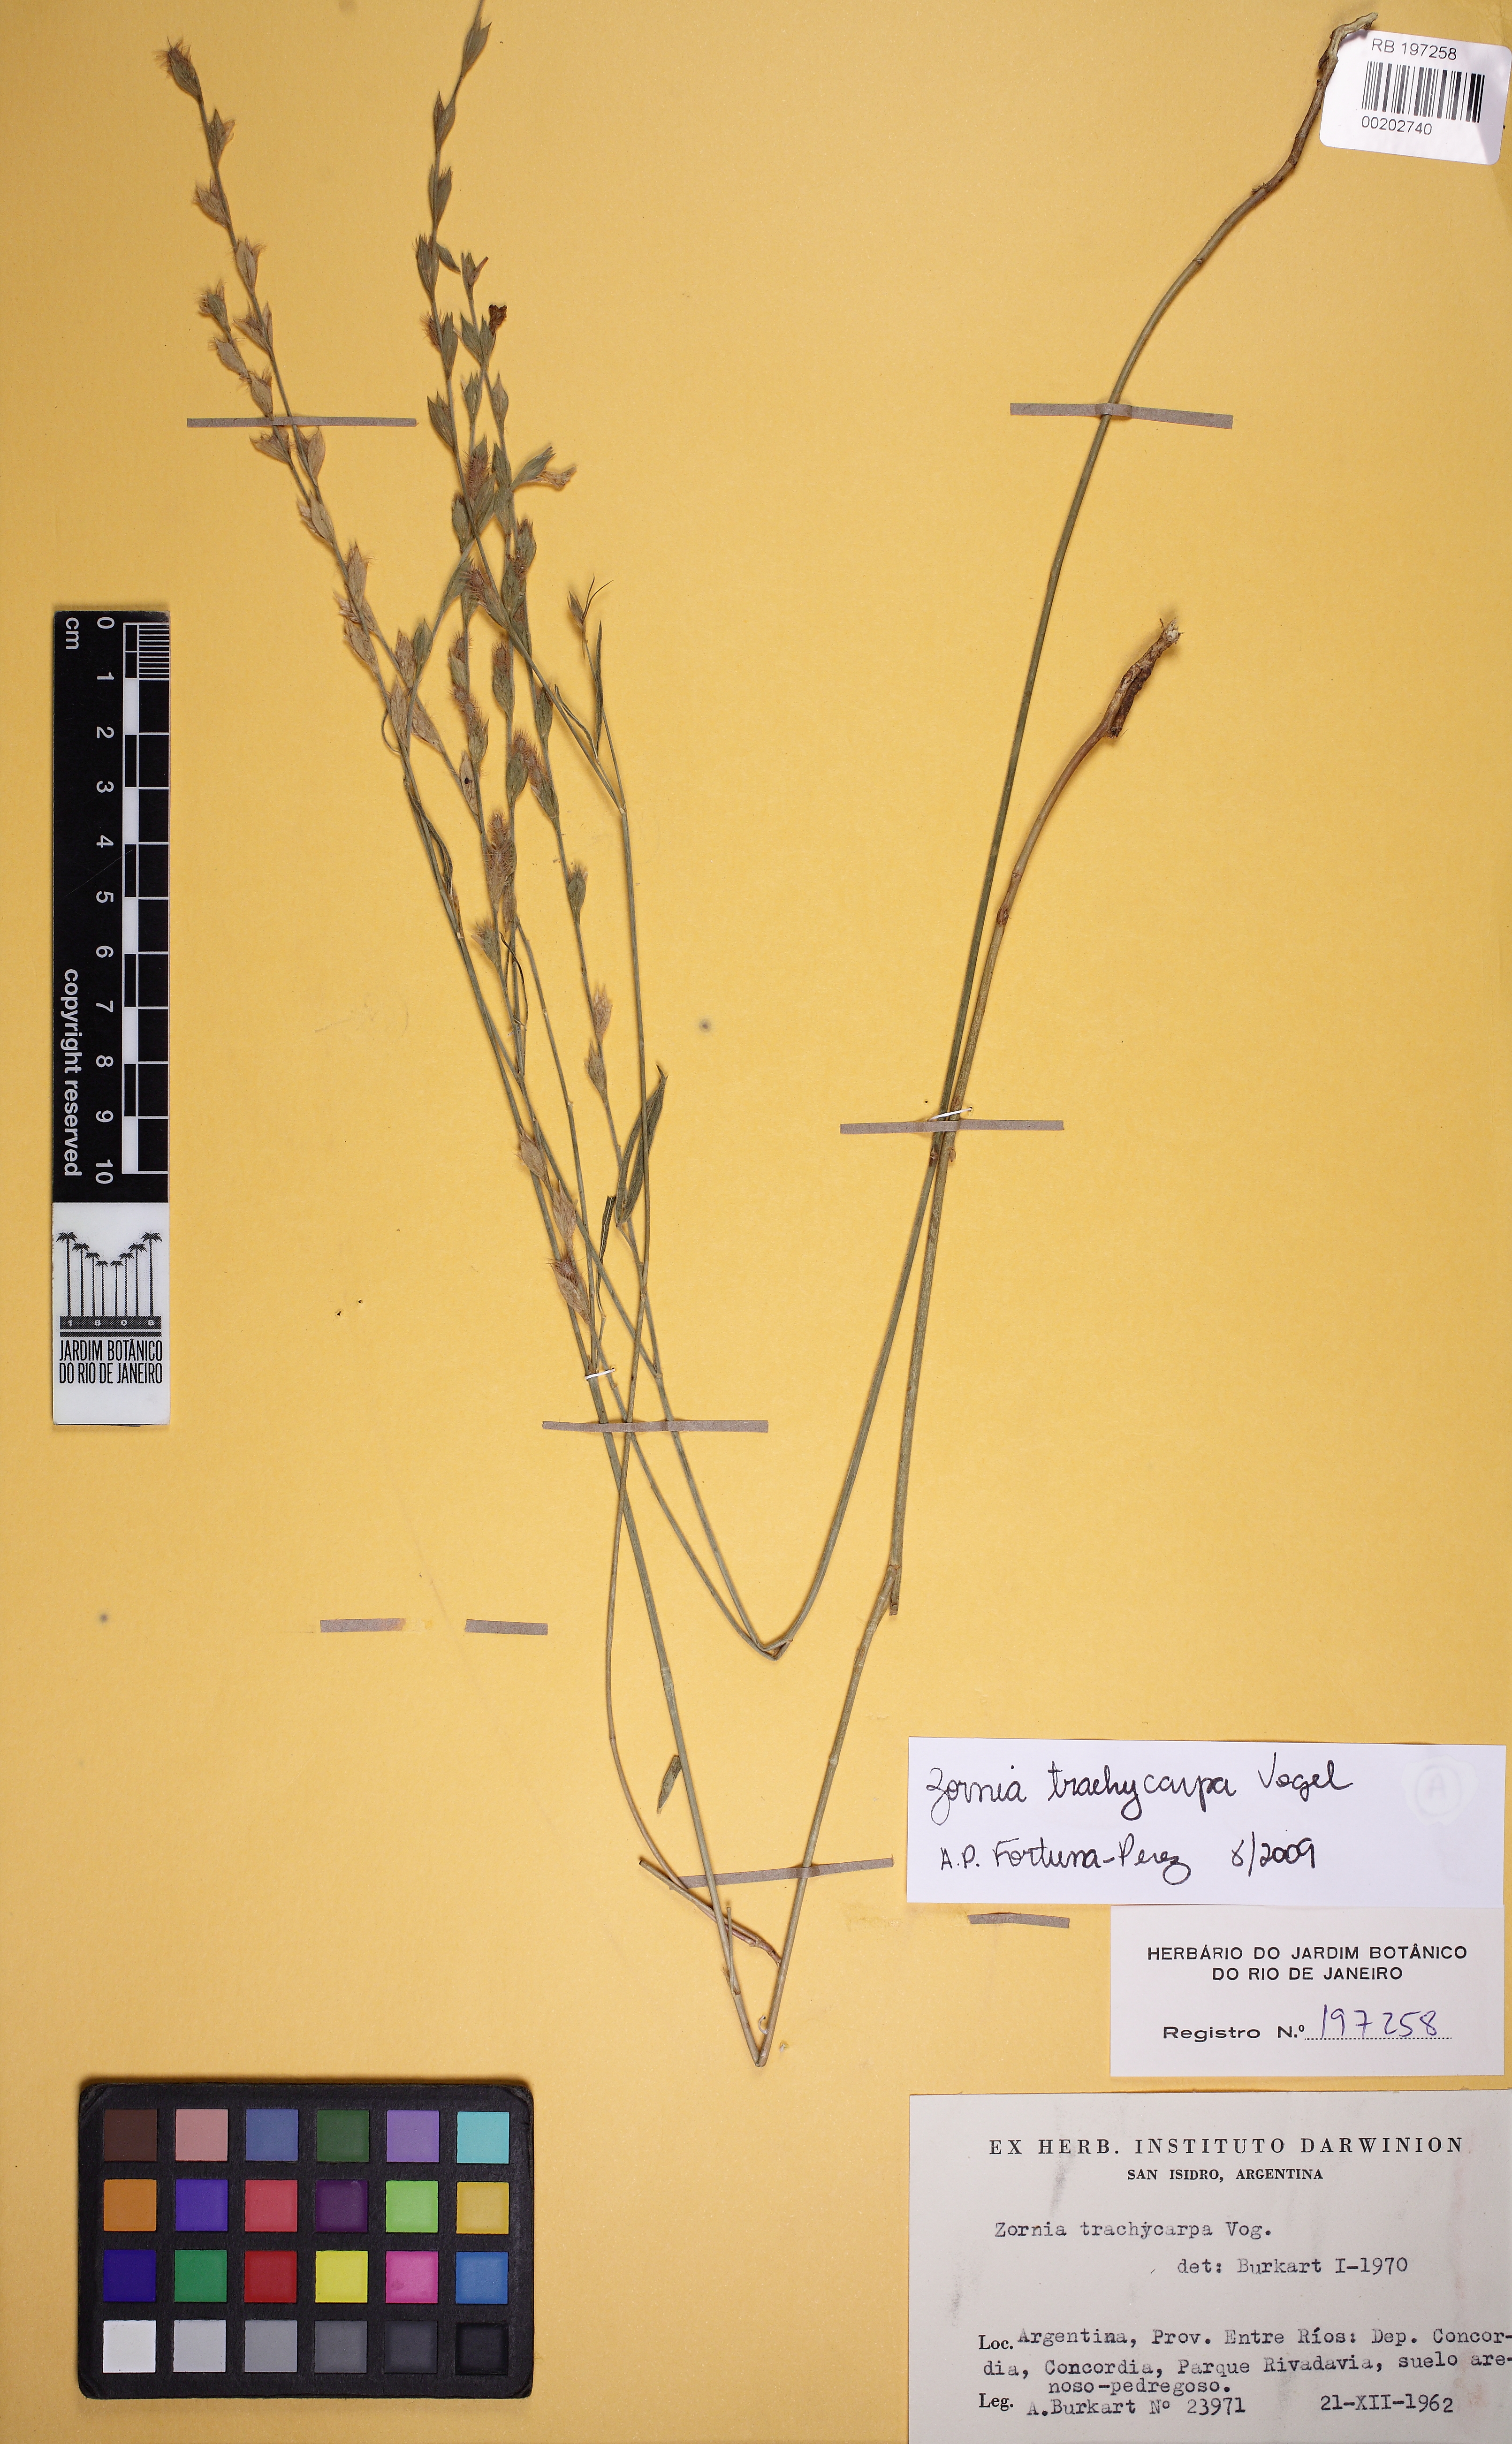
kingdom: Plantae
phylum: Tracheophyta
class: Magnoliopsida
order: Fabales
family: Fabaceae
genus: Zornia
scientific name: Zornia trachycarpa
